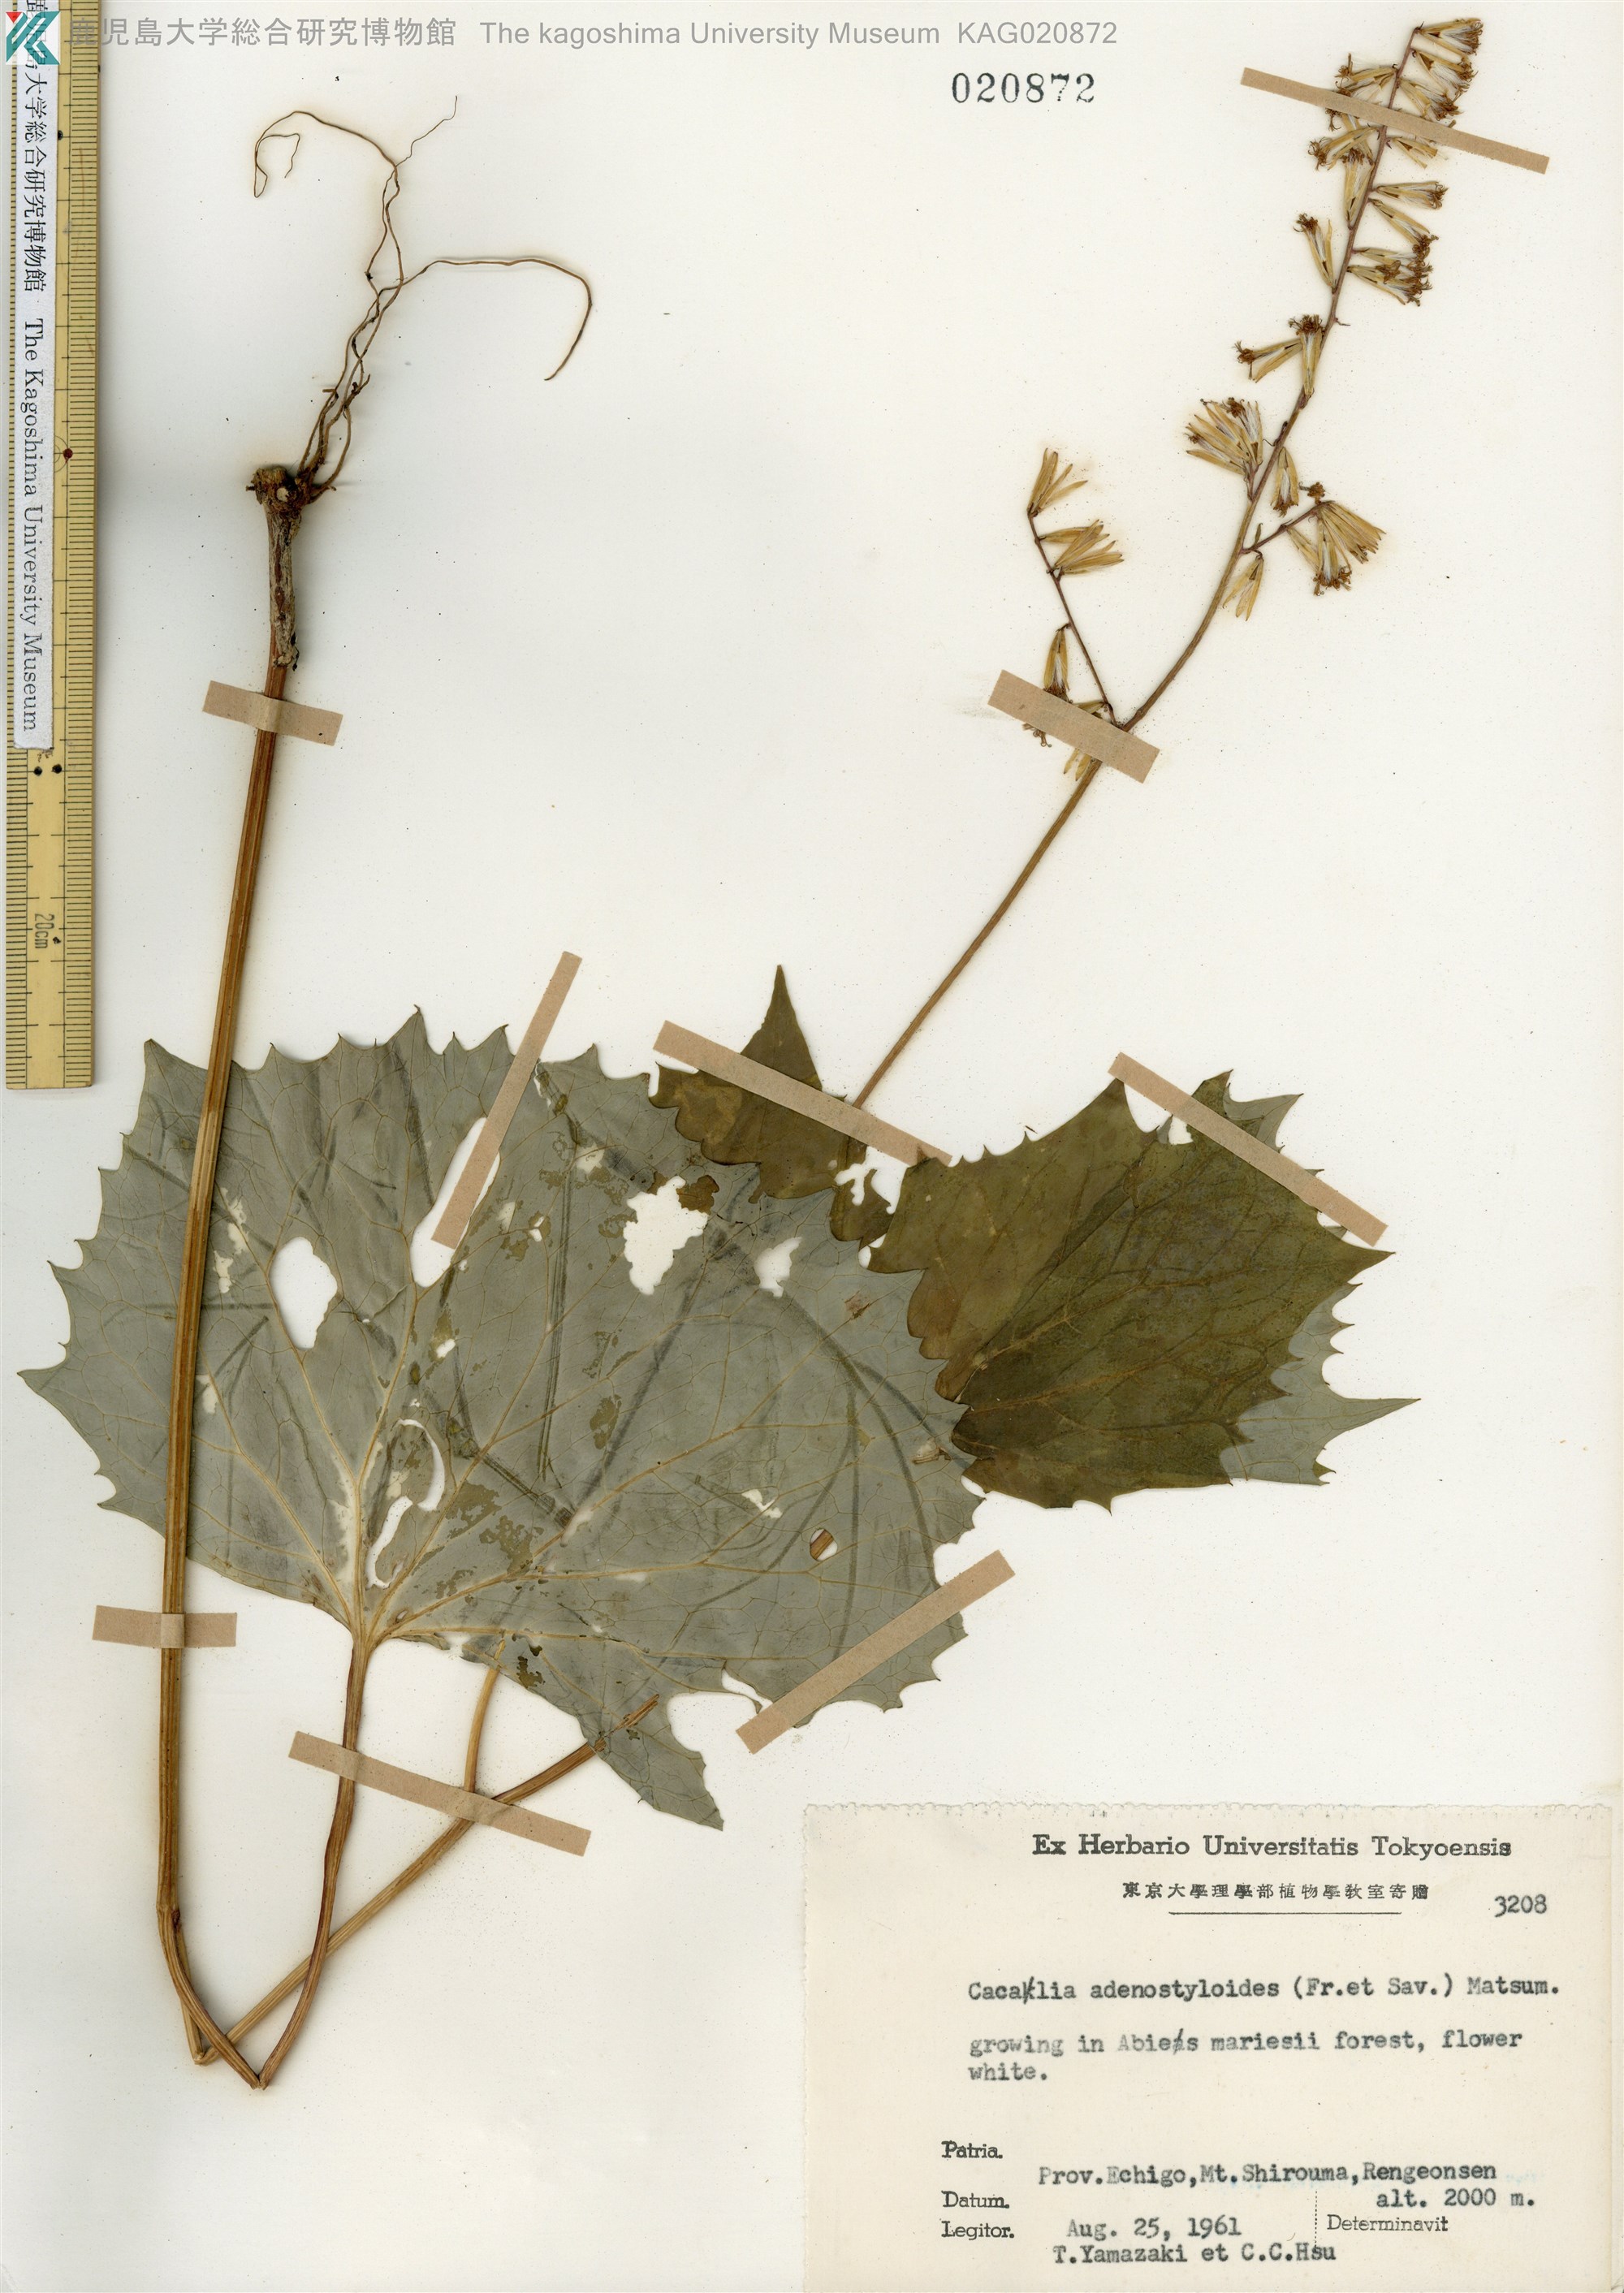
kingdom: Plantae
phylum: Tracheophyta
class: Magnoliopsida
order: Asterales
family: Asteraceae
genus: Parasenecio
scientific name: Parasenecio farfarifolius
